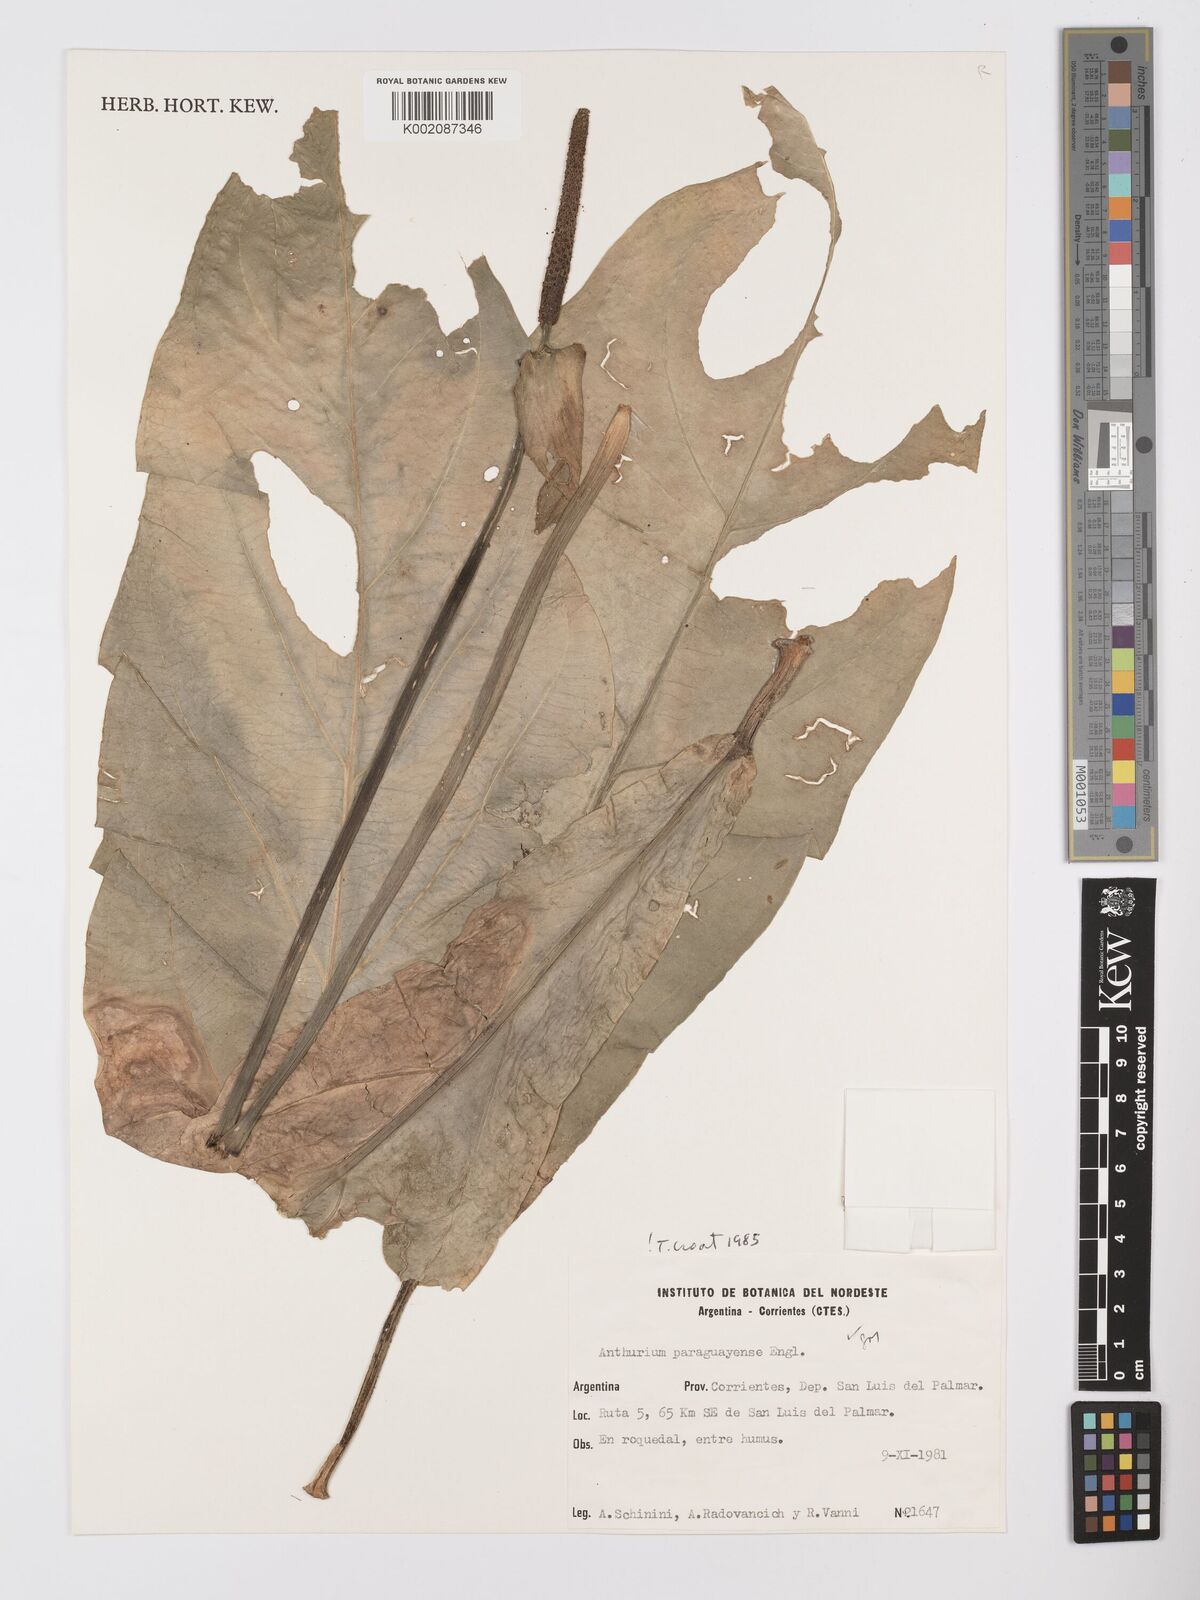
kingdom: Plantae
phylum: Tracheophyta
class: Liliopsida
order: Alismatales
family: Araceae
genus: Anthurium
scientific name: Anthurium paraguayense
